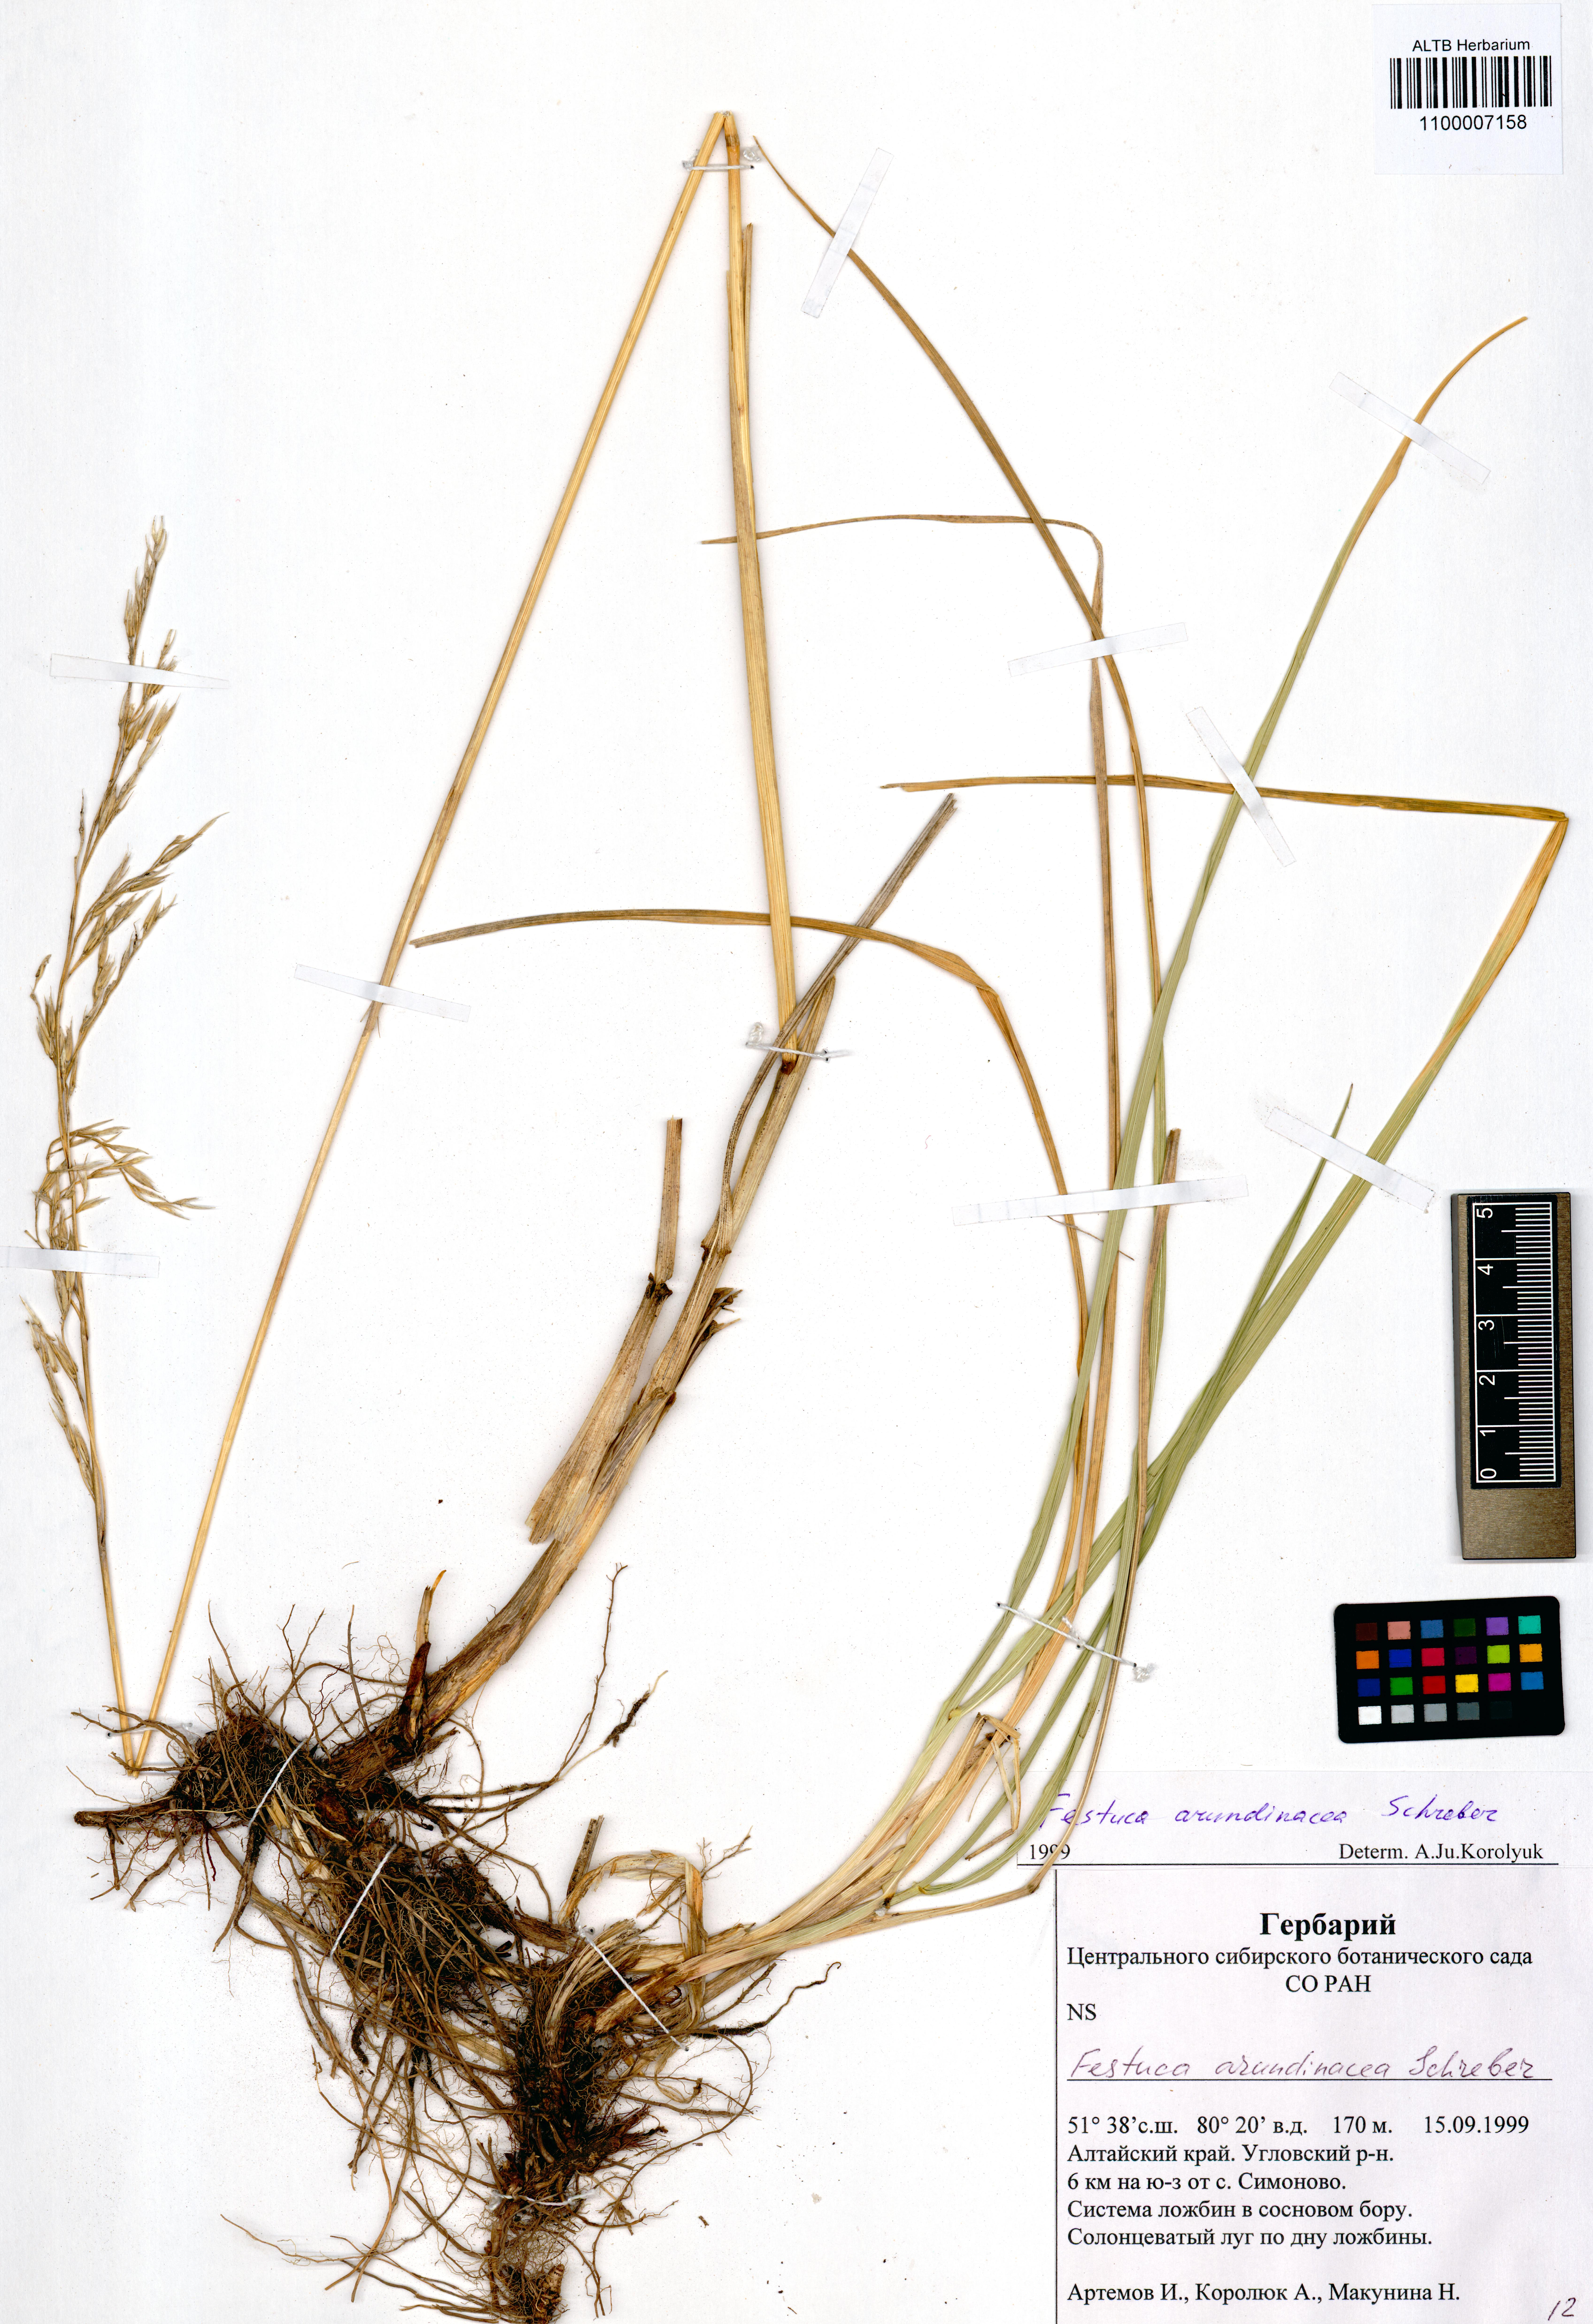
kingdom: Plantae
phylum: Tracheophyta
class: Liliopsida
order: Poales
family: Poaceae
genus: Lolium
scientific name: Lolium arundinaceum
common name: Reed fescue
